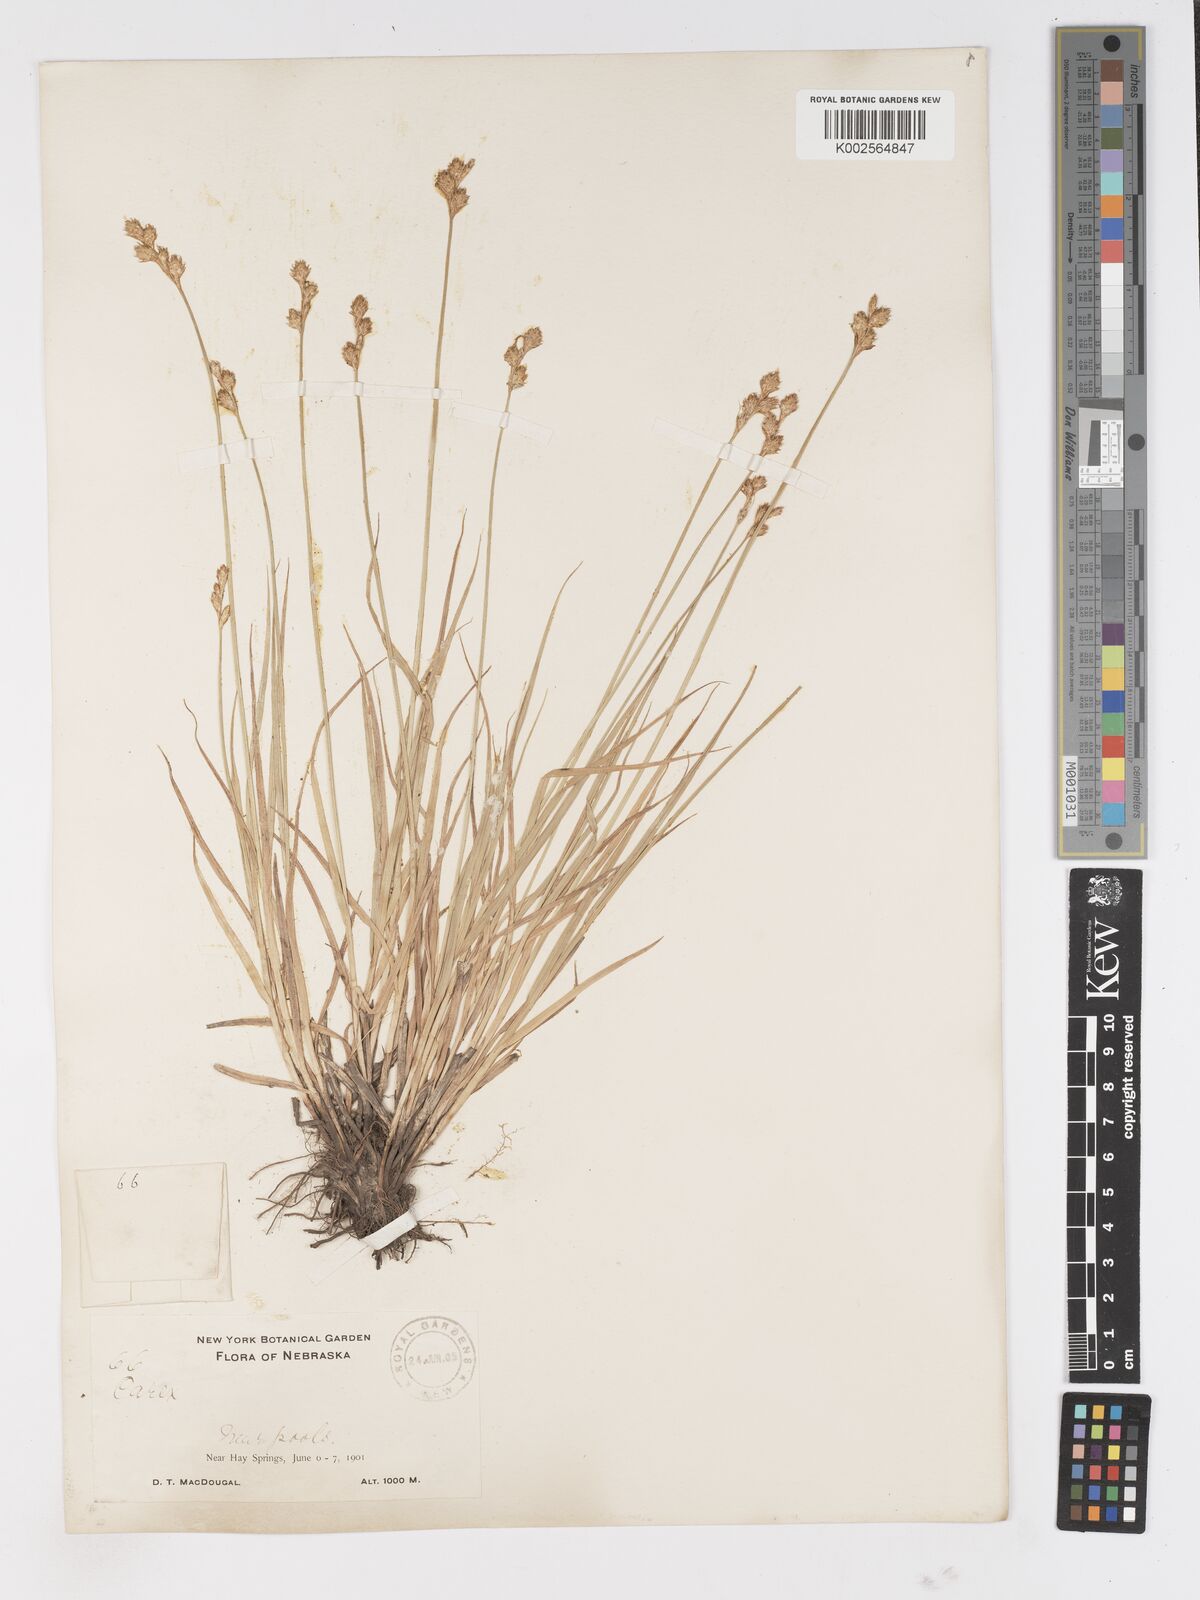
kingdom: Plantae
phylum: Tracheophyta
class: Liliopsida
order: Poales
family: Cyperaceae
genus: Carex
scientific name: Carex
